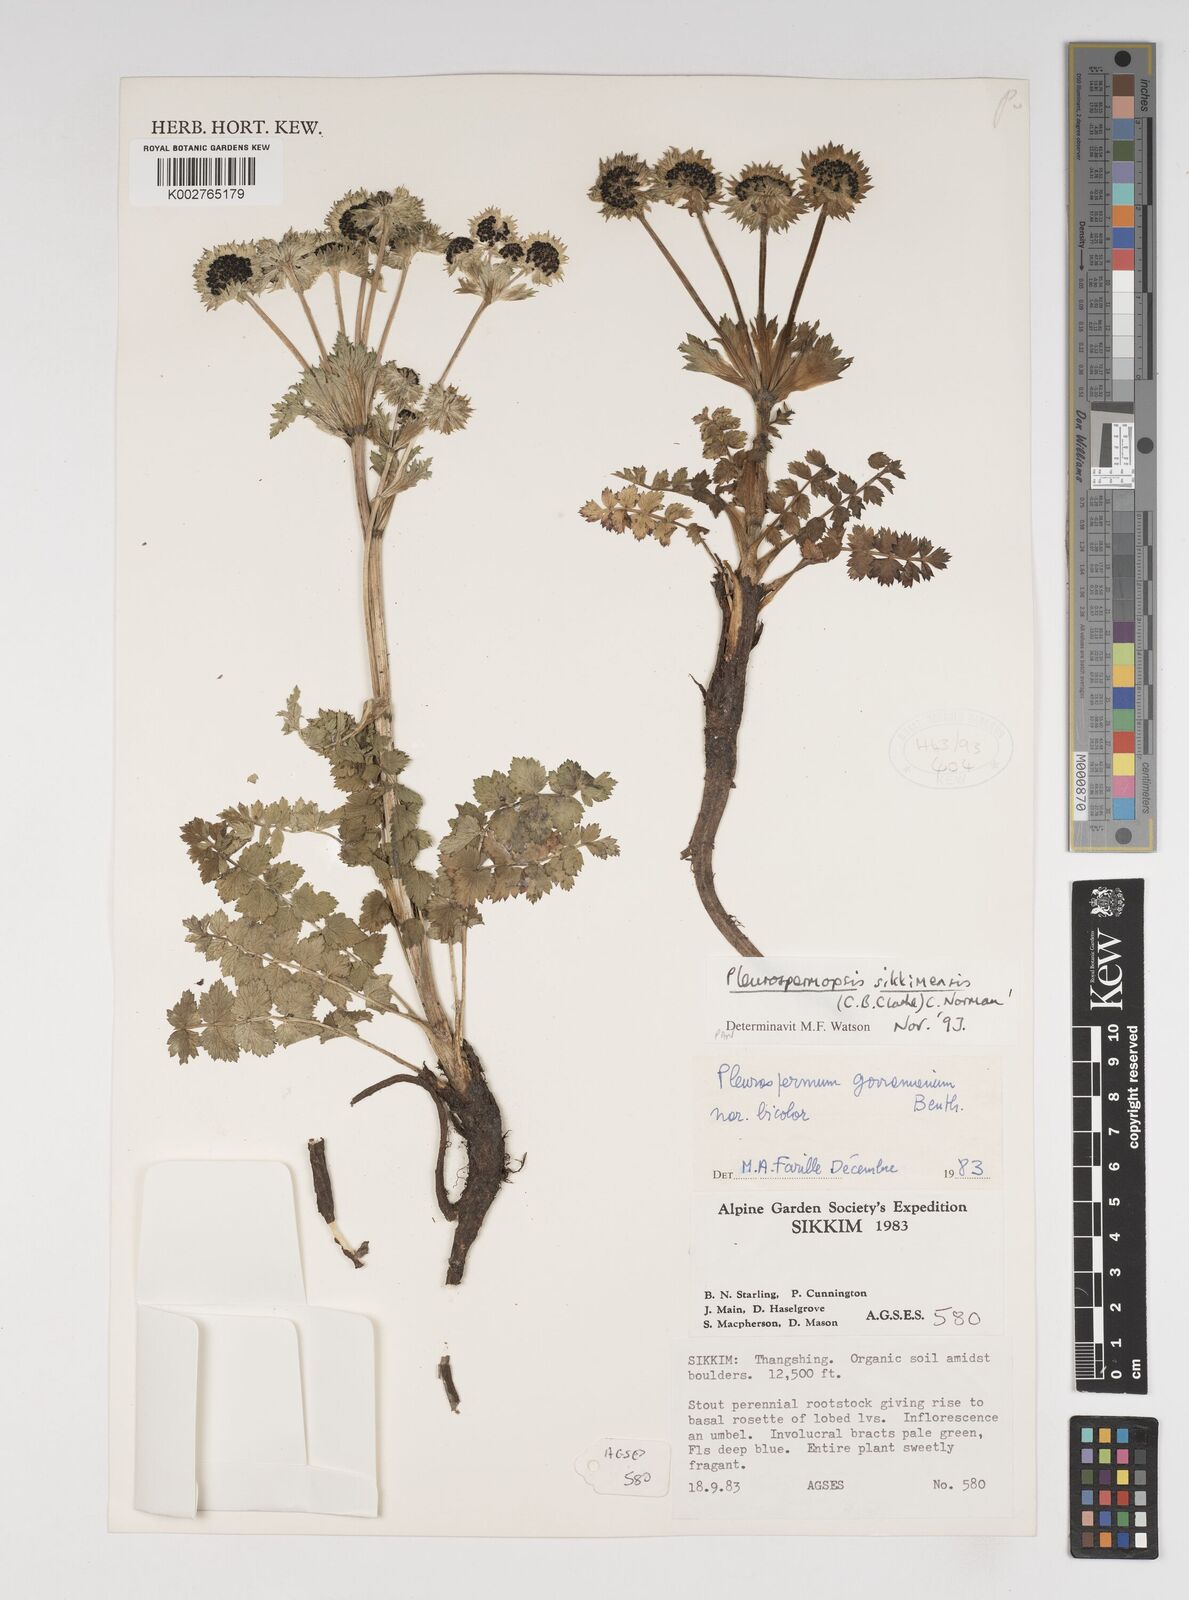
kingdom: Plantae
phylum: Tracheophyta
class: Magnoliopsida
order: Apiales
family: Apiaceae
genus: Pleurospermopsis
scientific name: Pleurospermopsis sikkimensis
